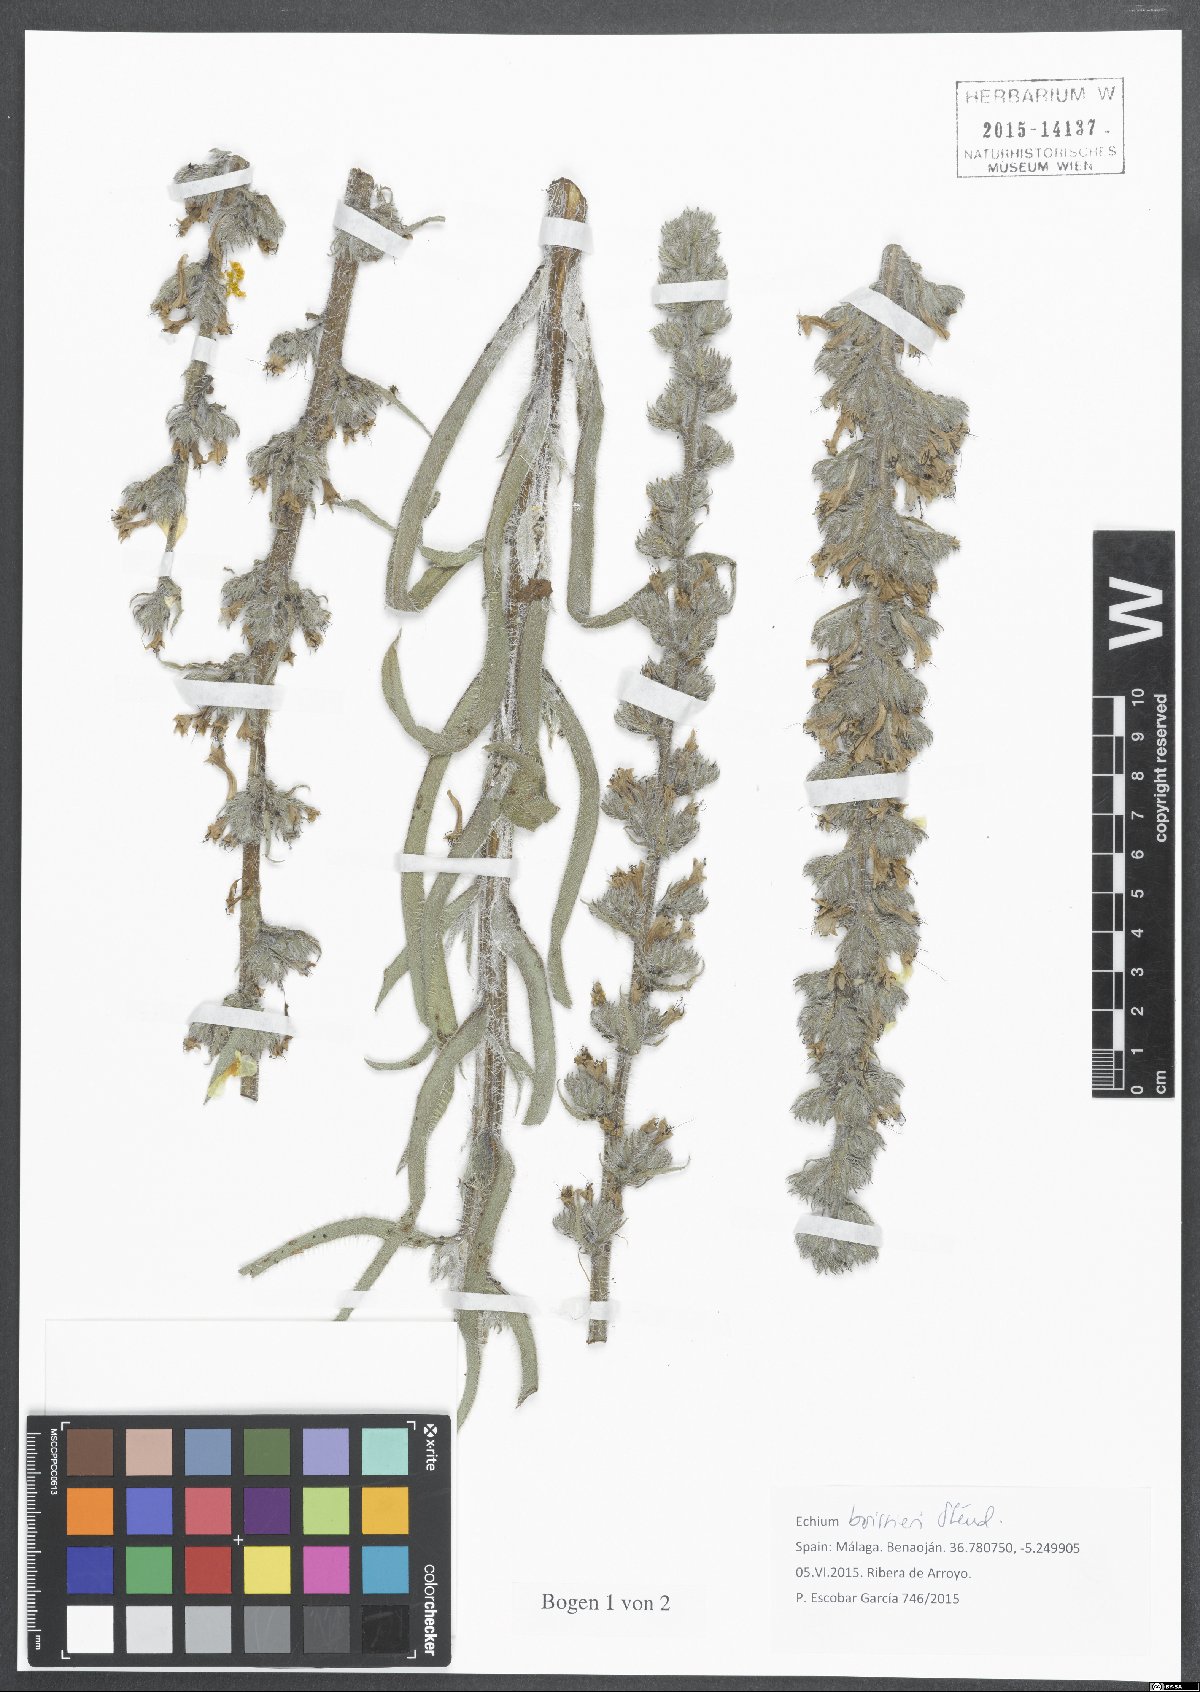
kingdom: Plantae
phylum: Tracheophyta
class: Magnoliopsida
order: Boraginales
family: Boraginaceae
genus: Echium
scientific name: Echium boissieri
